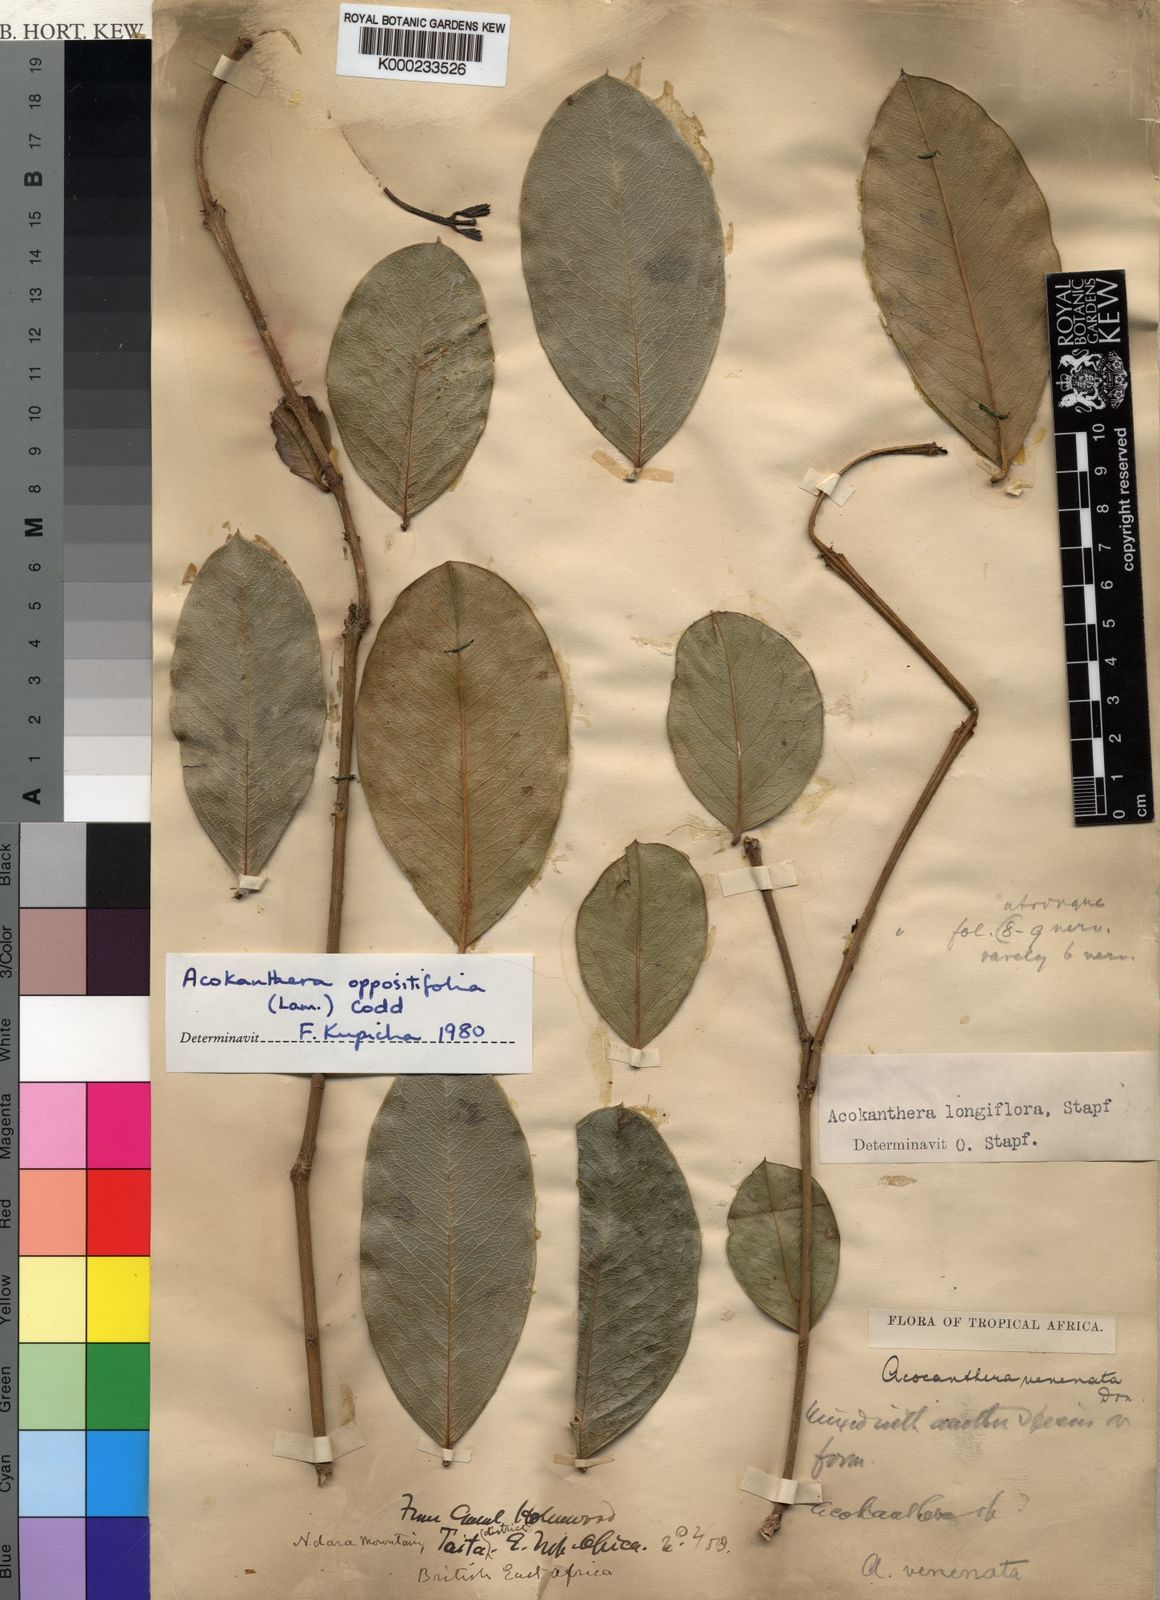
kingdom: Plantae
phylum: Tracheophyta
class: Magnoliopsida
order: Gentianales
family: Apocynaceae
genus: Acokanthera
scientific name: Acokanthera oppositifolia
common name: Bushman's-poison
